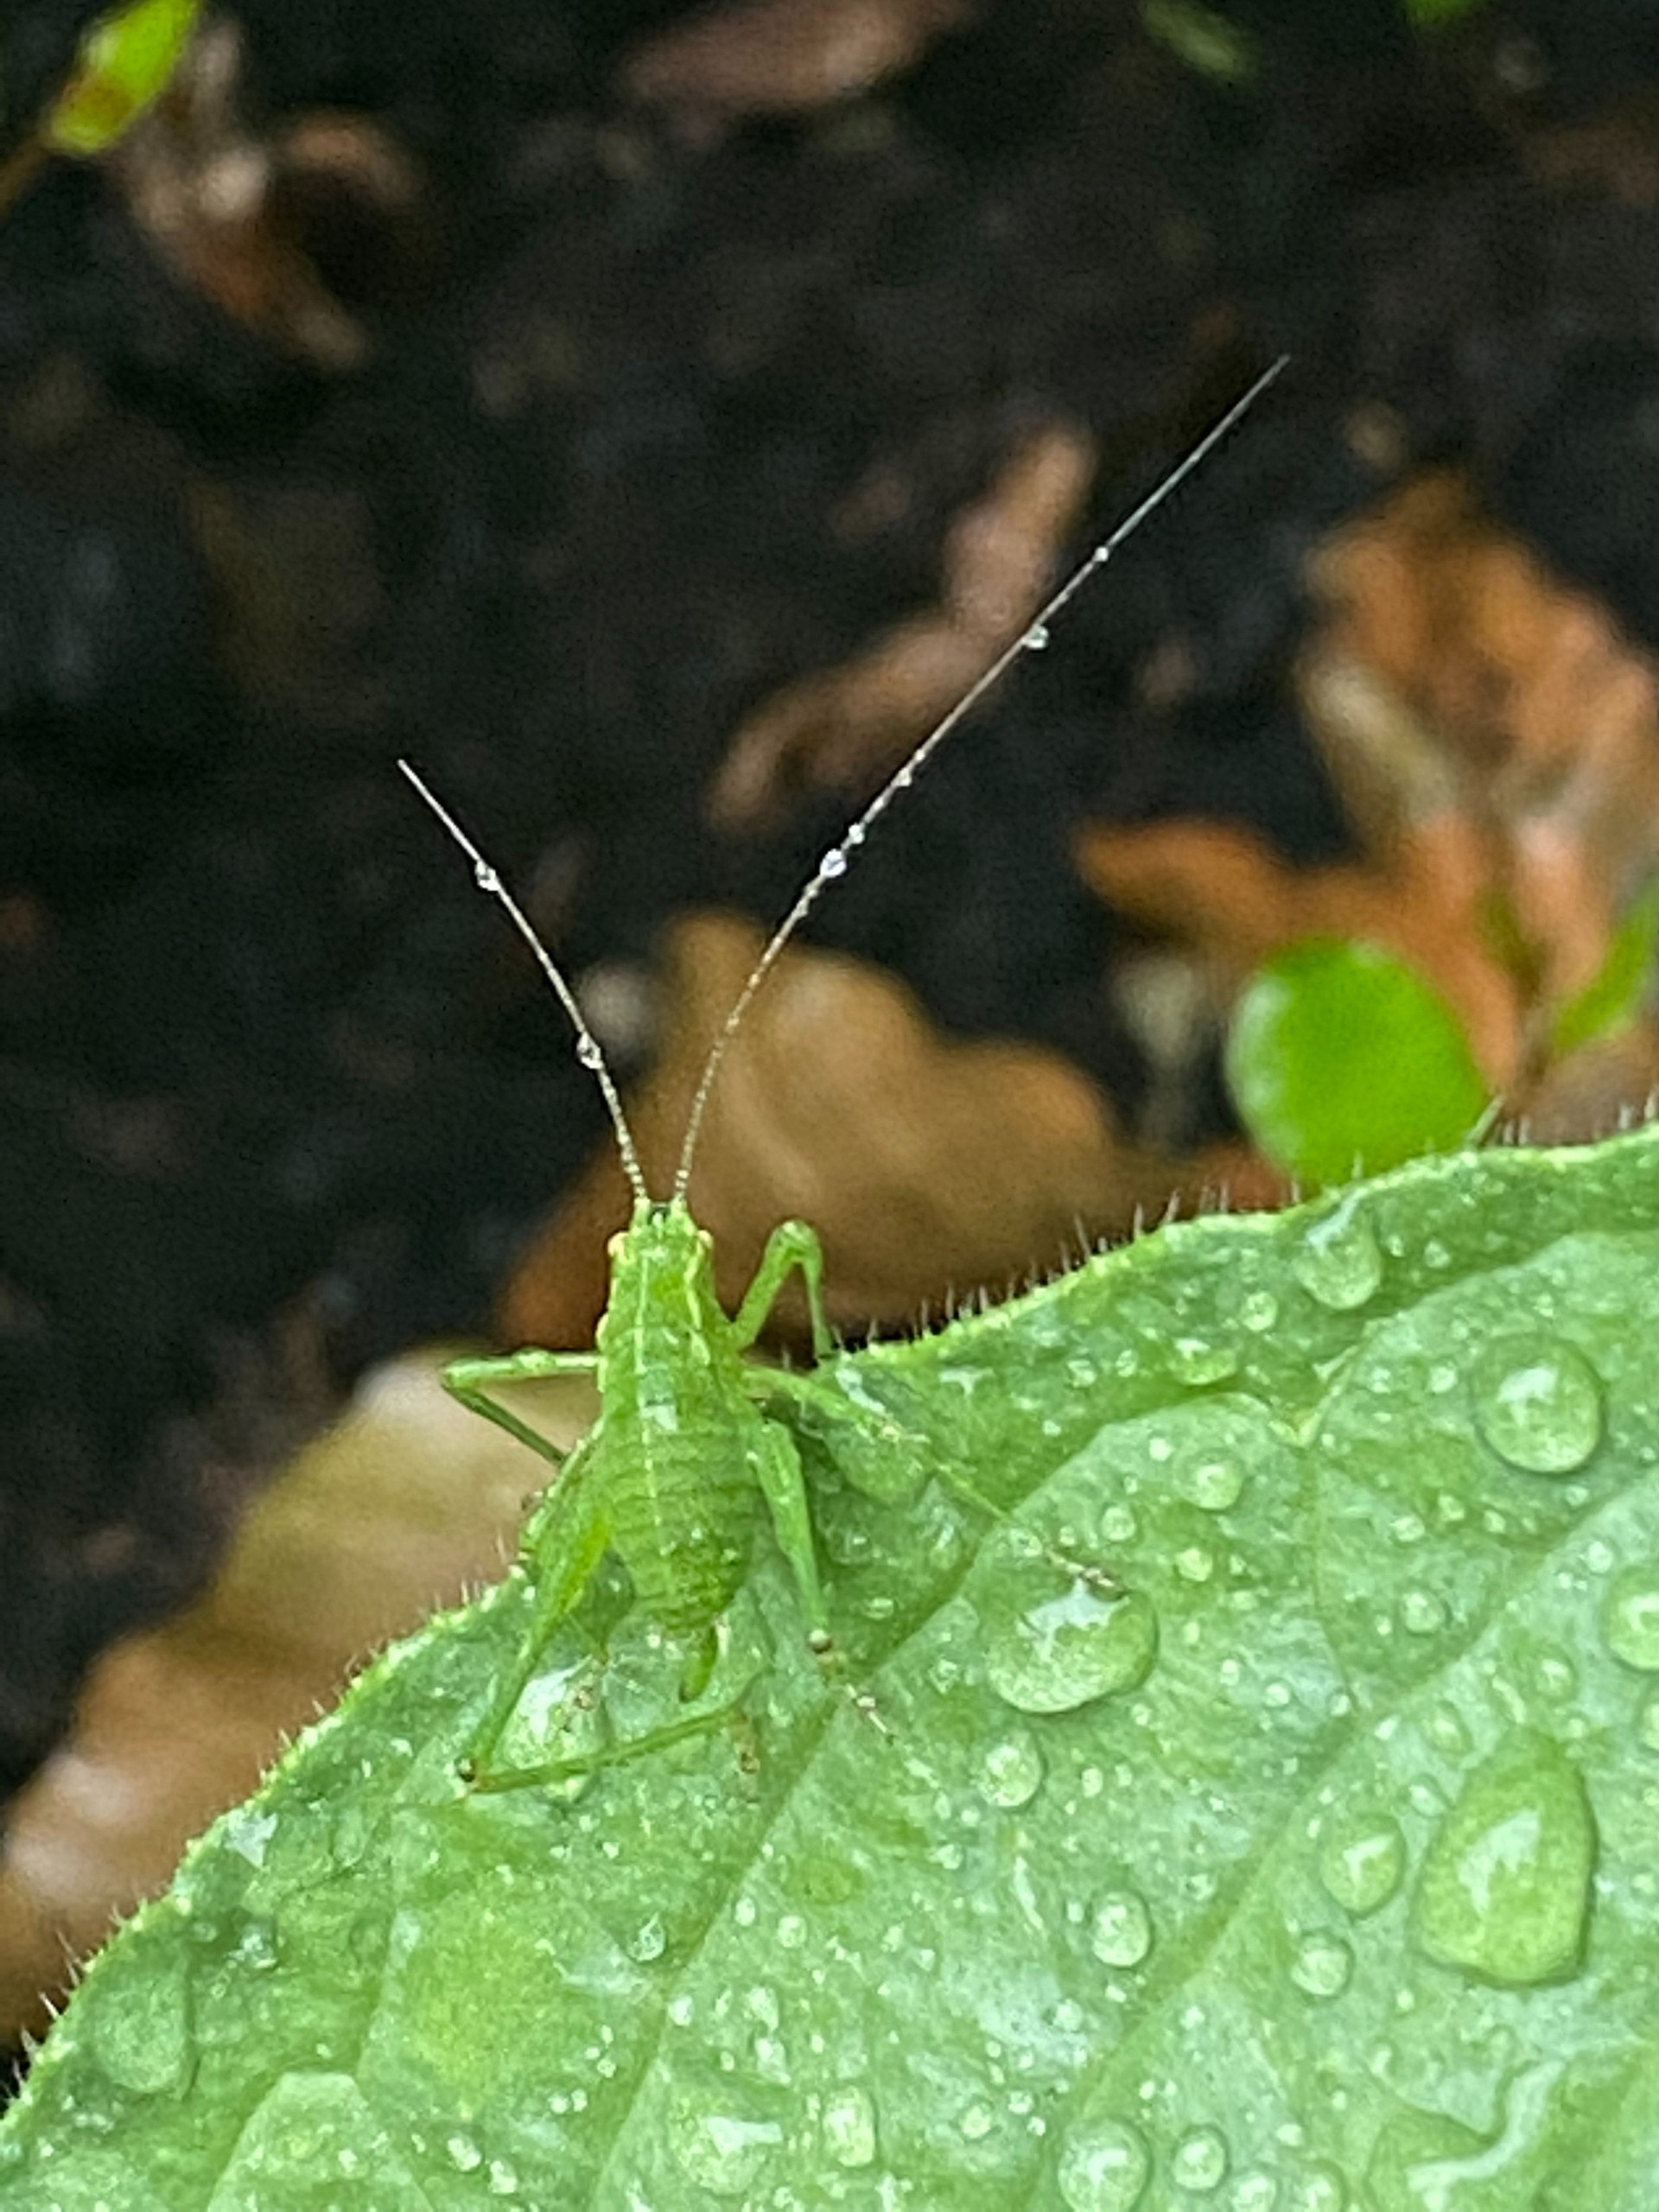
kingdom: Animalia
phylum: Arthropoda
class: Insecta
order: Orthoptera
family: Tettigoniidae
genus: Leptophyes
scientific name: Leptophyes punctatissima
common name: Krumknivgræshoppe
